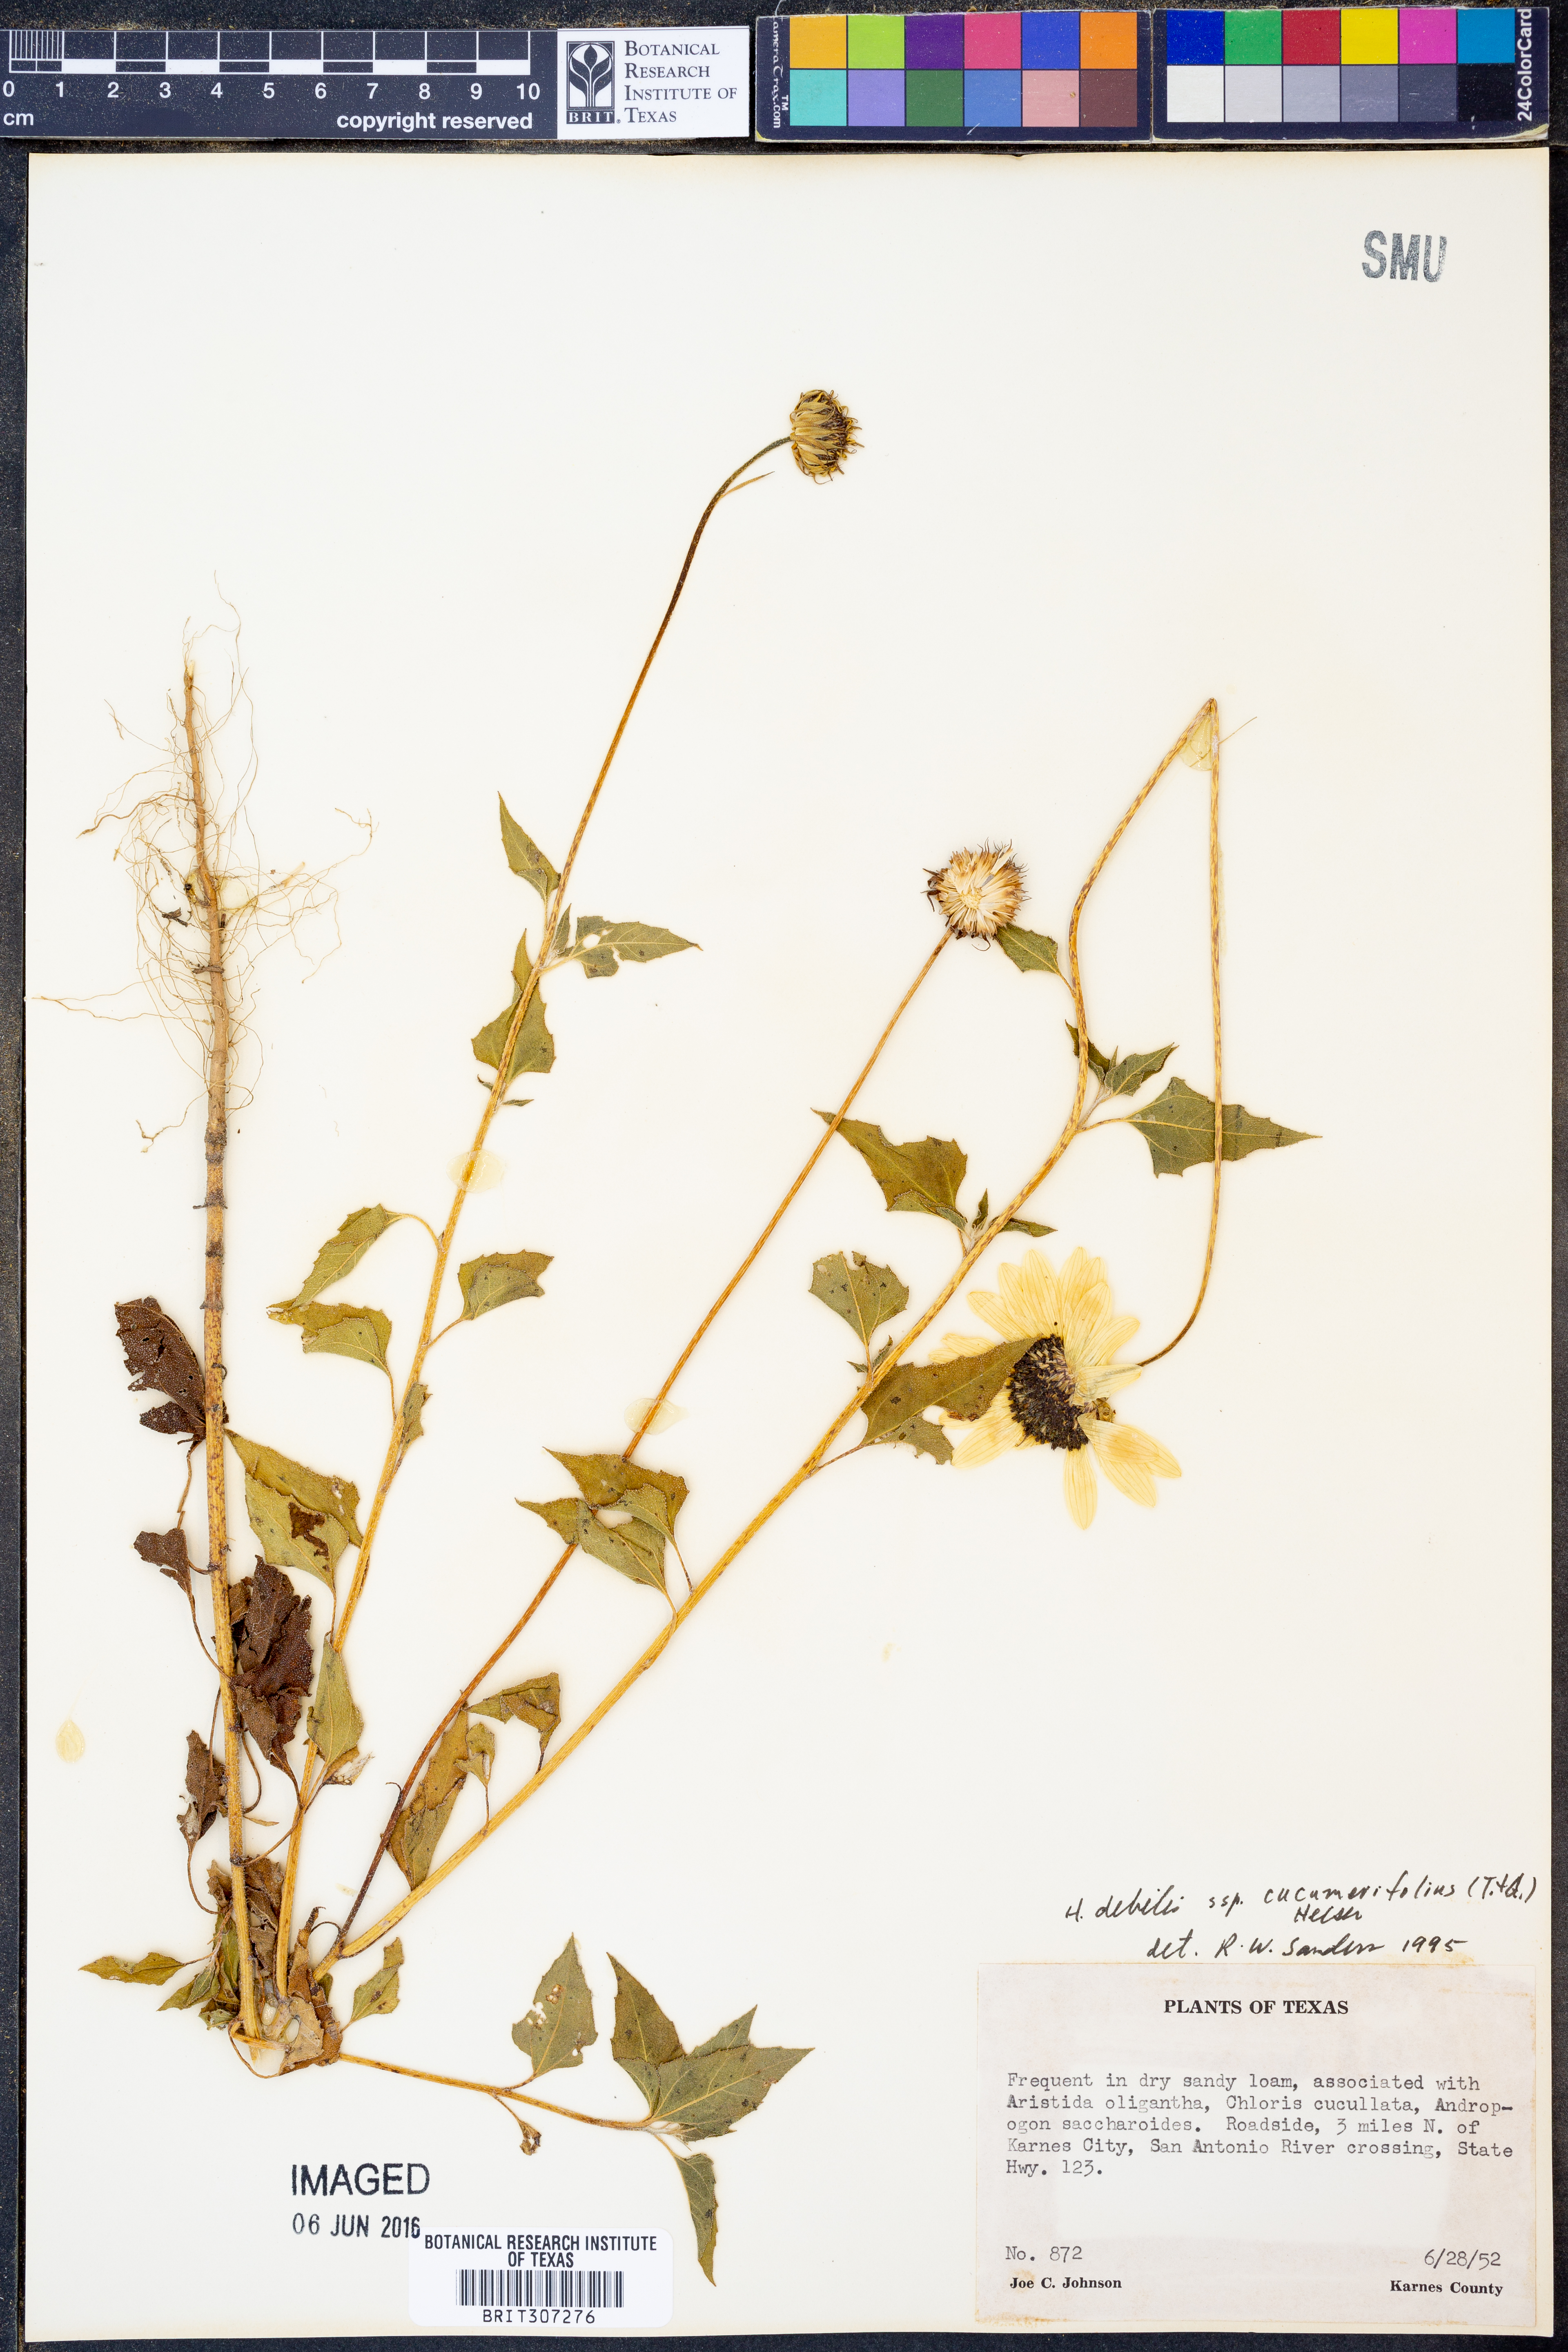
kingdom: Plantae
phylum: Tracheophyta
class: Magnoliopsida
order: Asterales
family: Asteraceae
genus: Helianthus
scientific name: Helianthus debilis
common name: Weak sunflower
